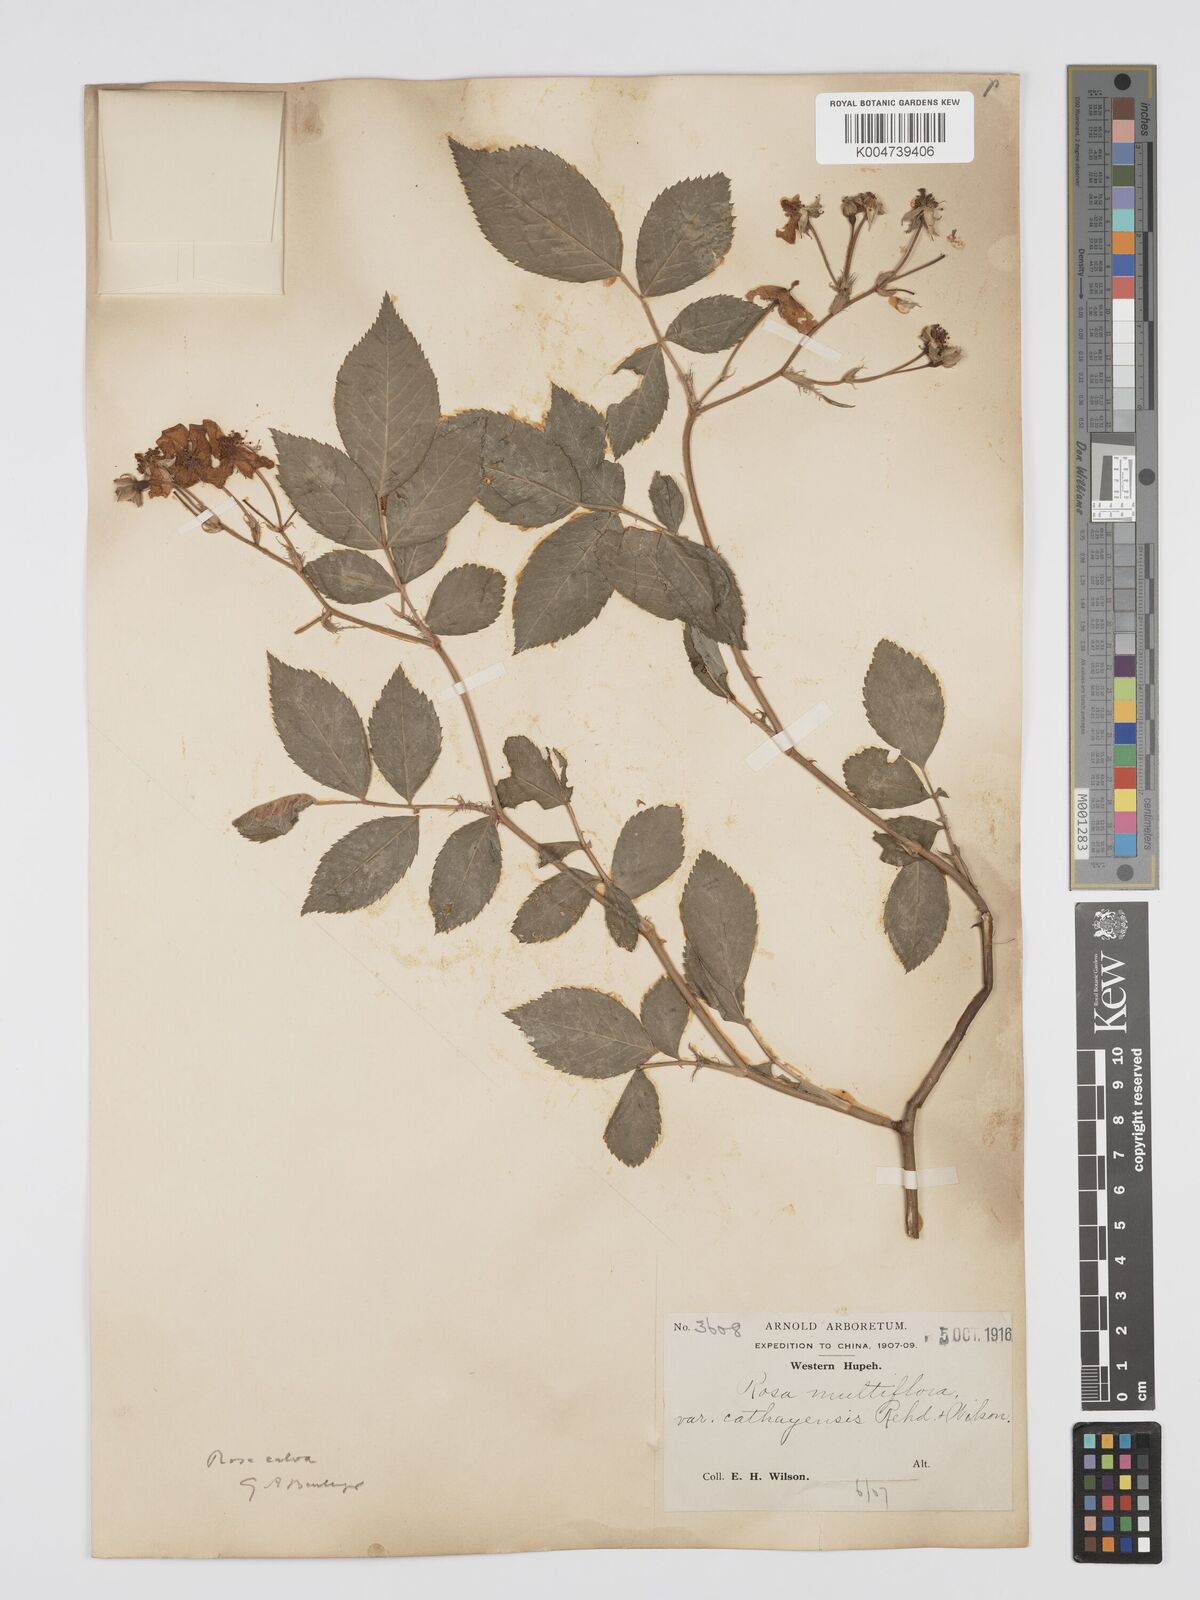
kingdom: Plantae
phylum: Tracheophyta
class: Magnoliopsida
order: Rosales
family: Rosaceae
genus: Rosa
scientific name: Rosa
